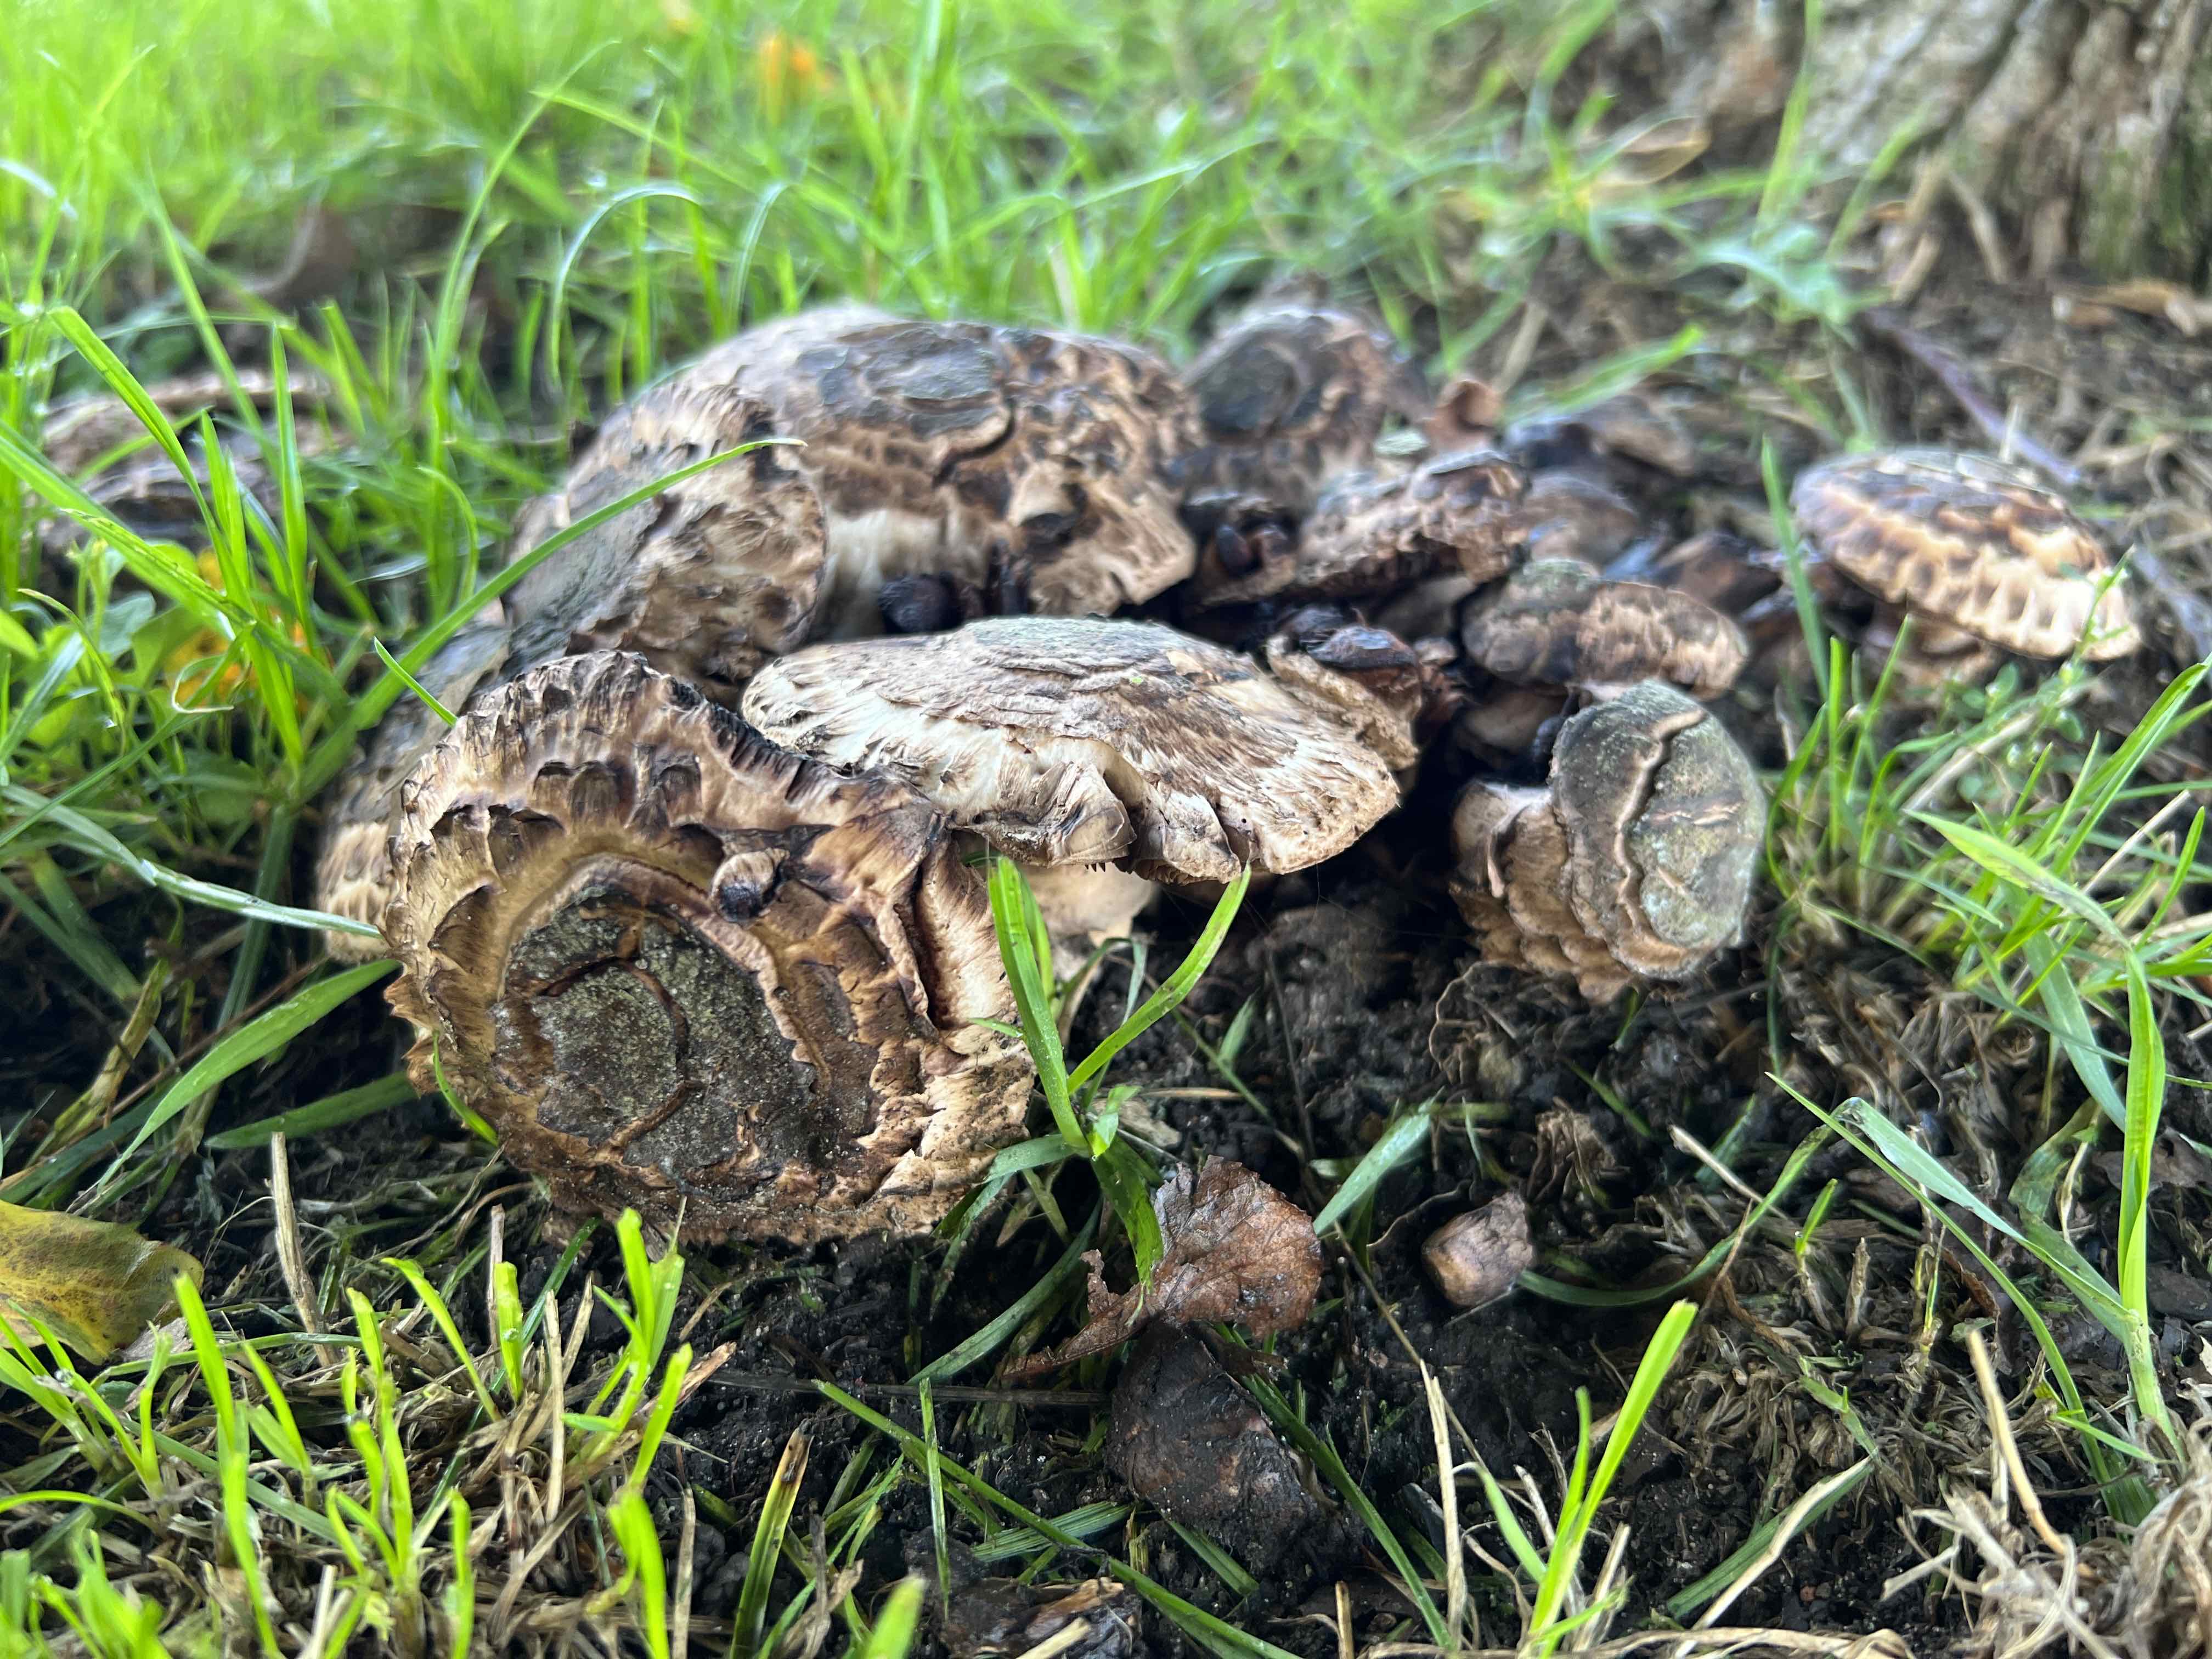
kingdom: Fungi
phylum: Basidiomycota
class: Agaricomycetes
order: Agaricales
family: Agaricaceae
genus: Agaricus
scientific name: Agaricus
